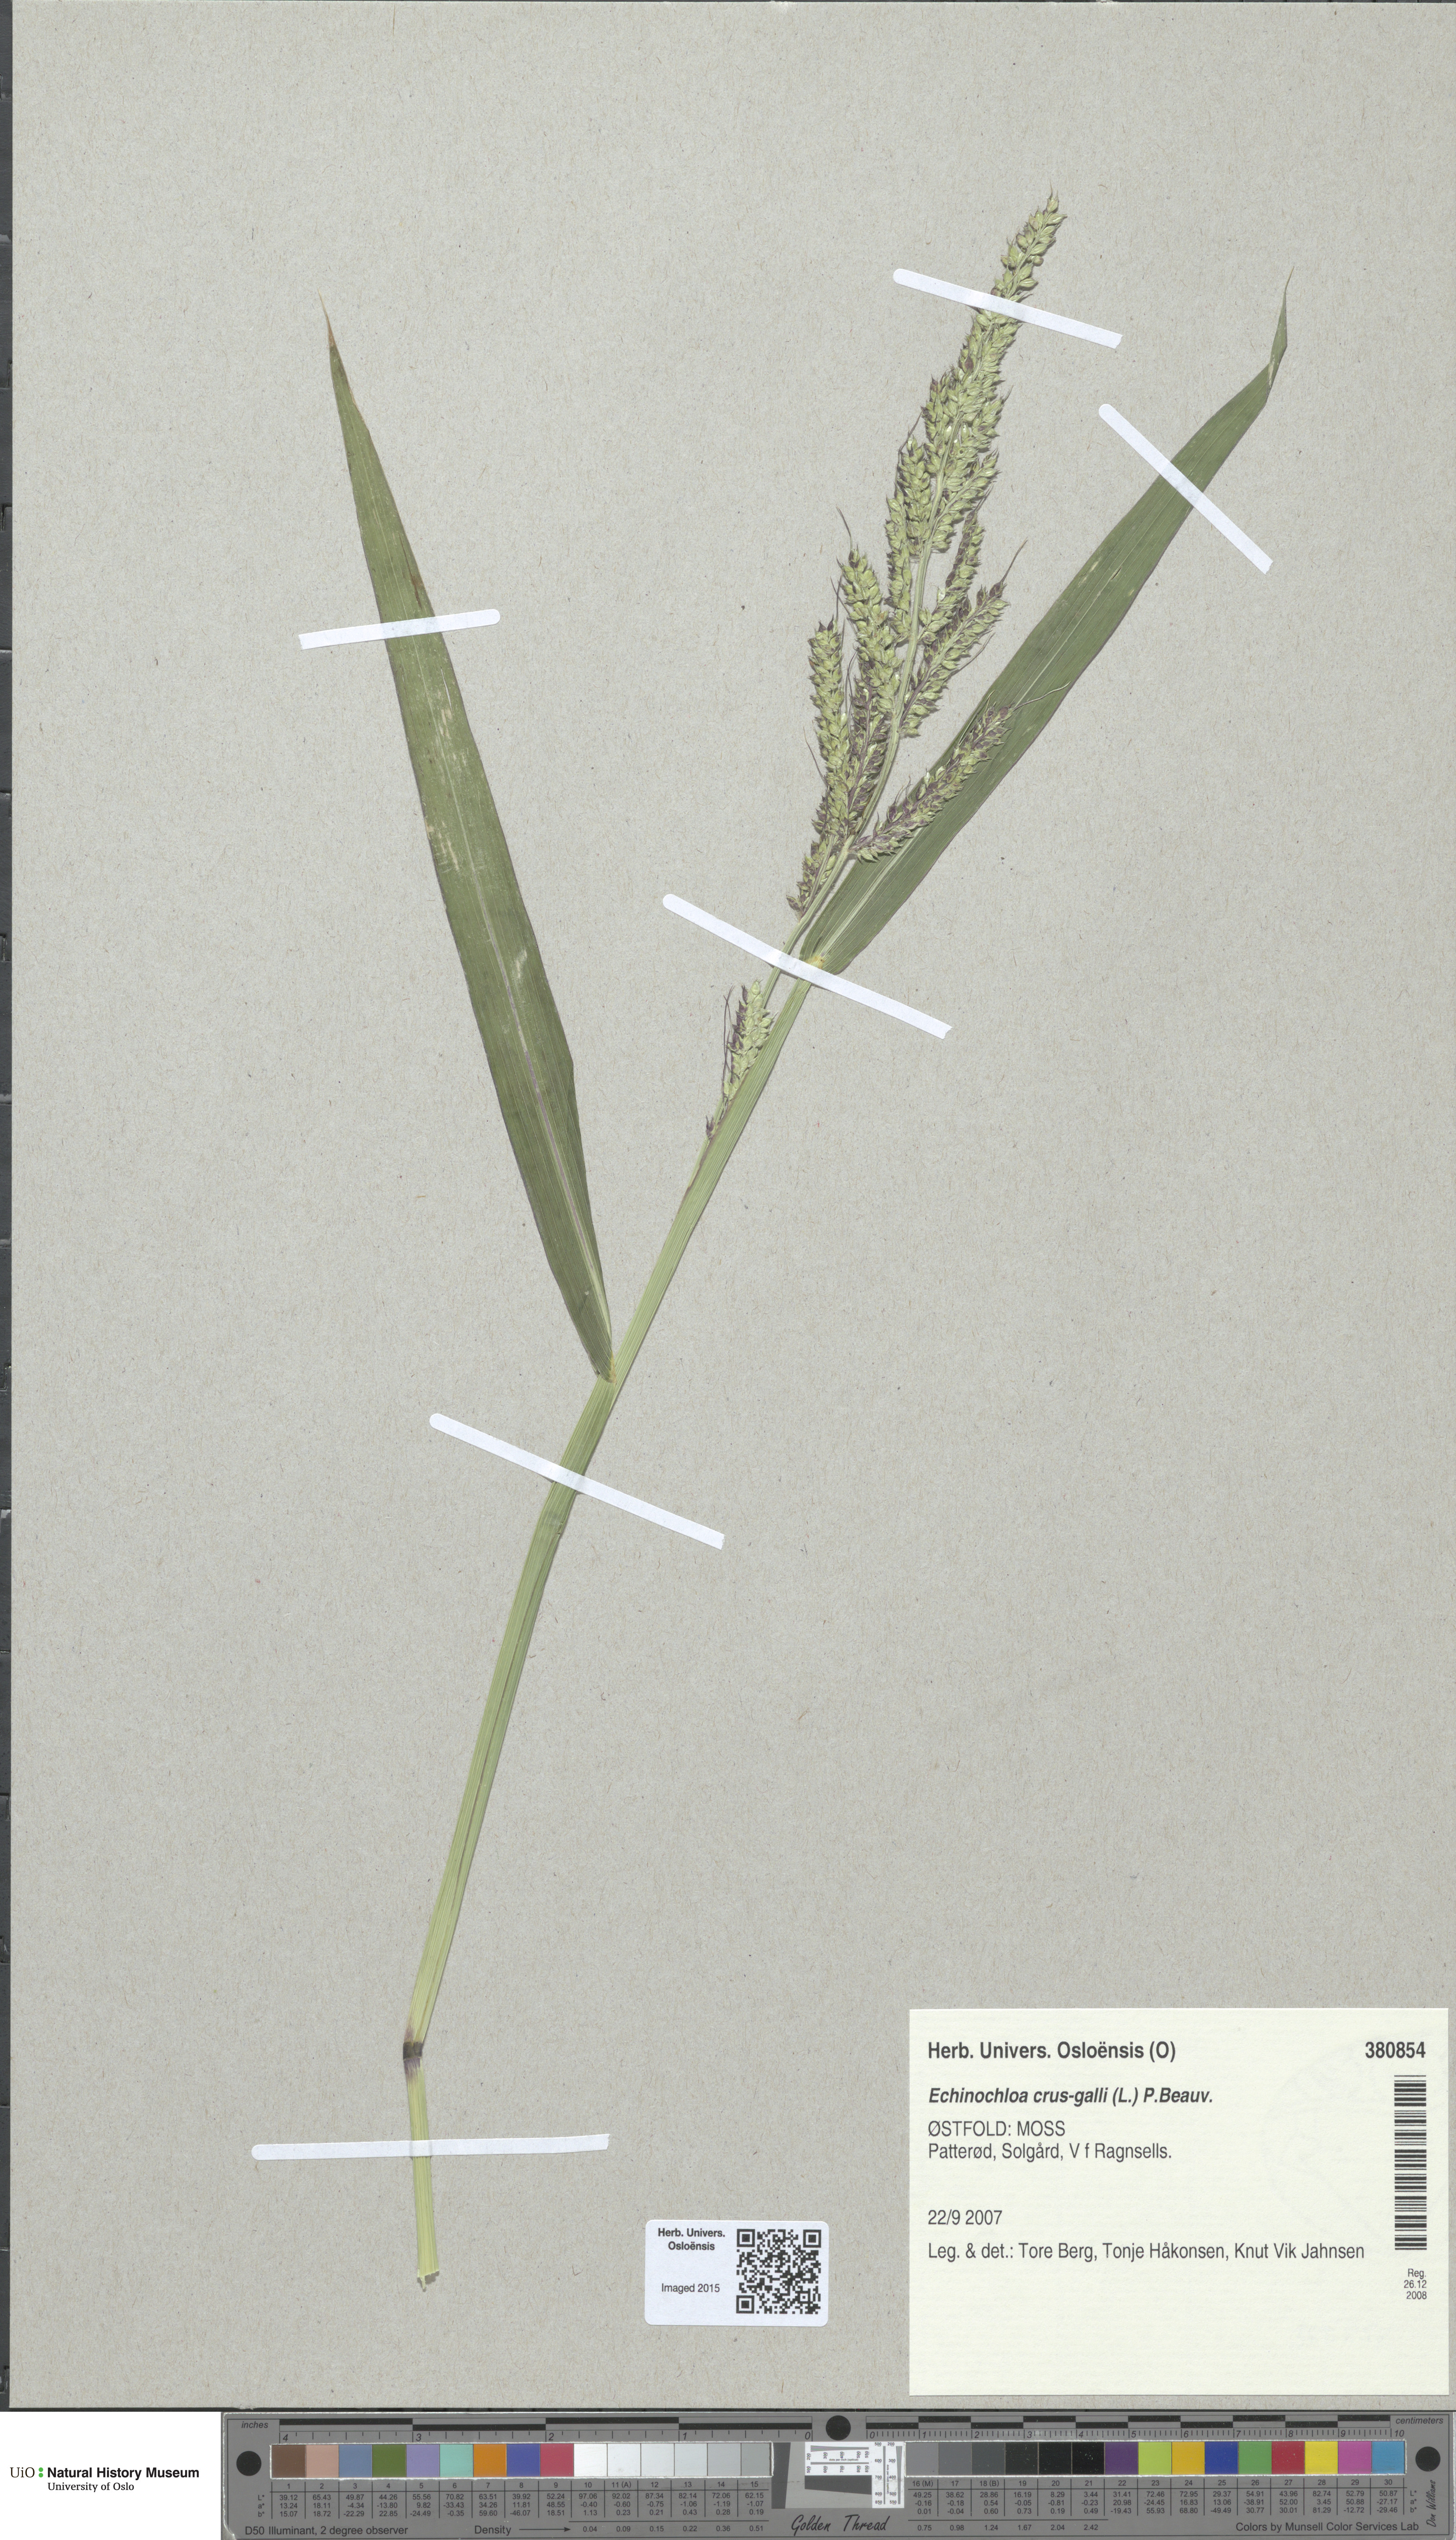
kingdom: Plantae
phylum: Tracheophyta
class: Liliopsida
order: Poales
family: Poaceae
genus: Echinochloa
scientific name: Echinochloa crus-galli
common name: Cockspur
